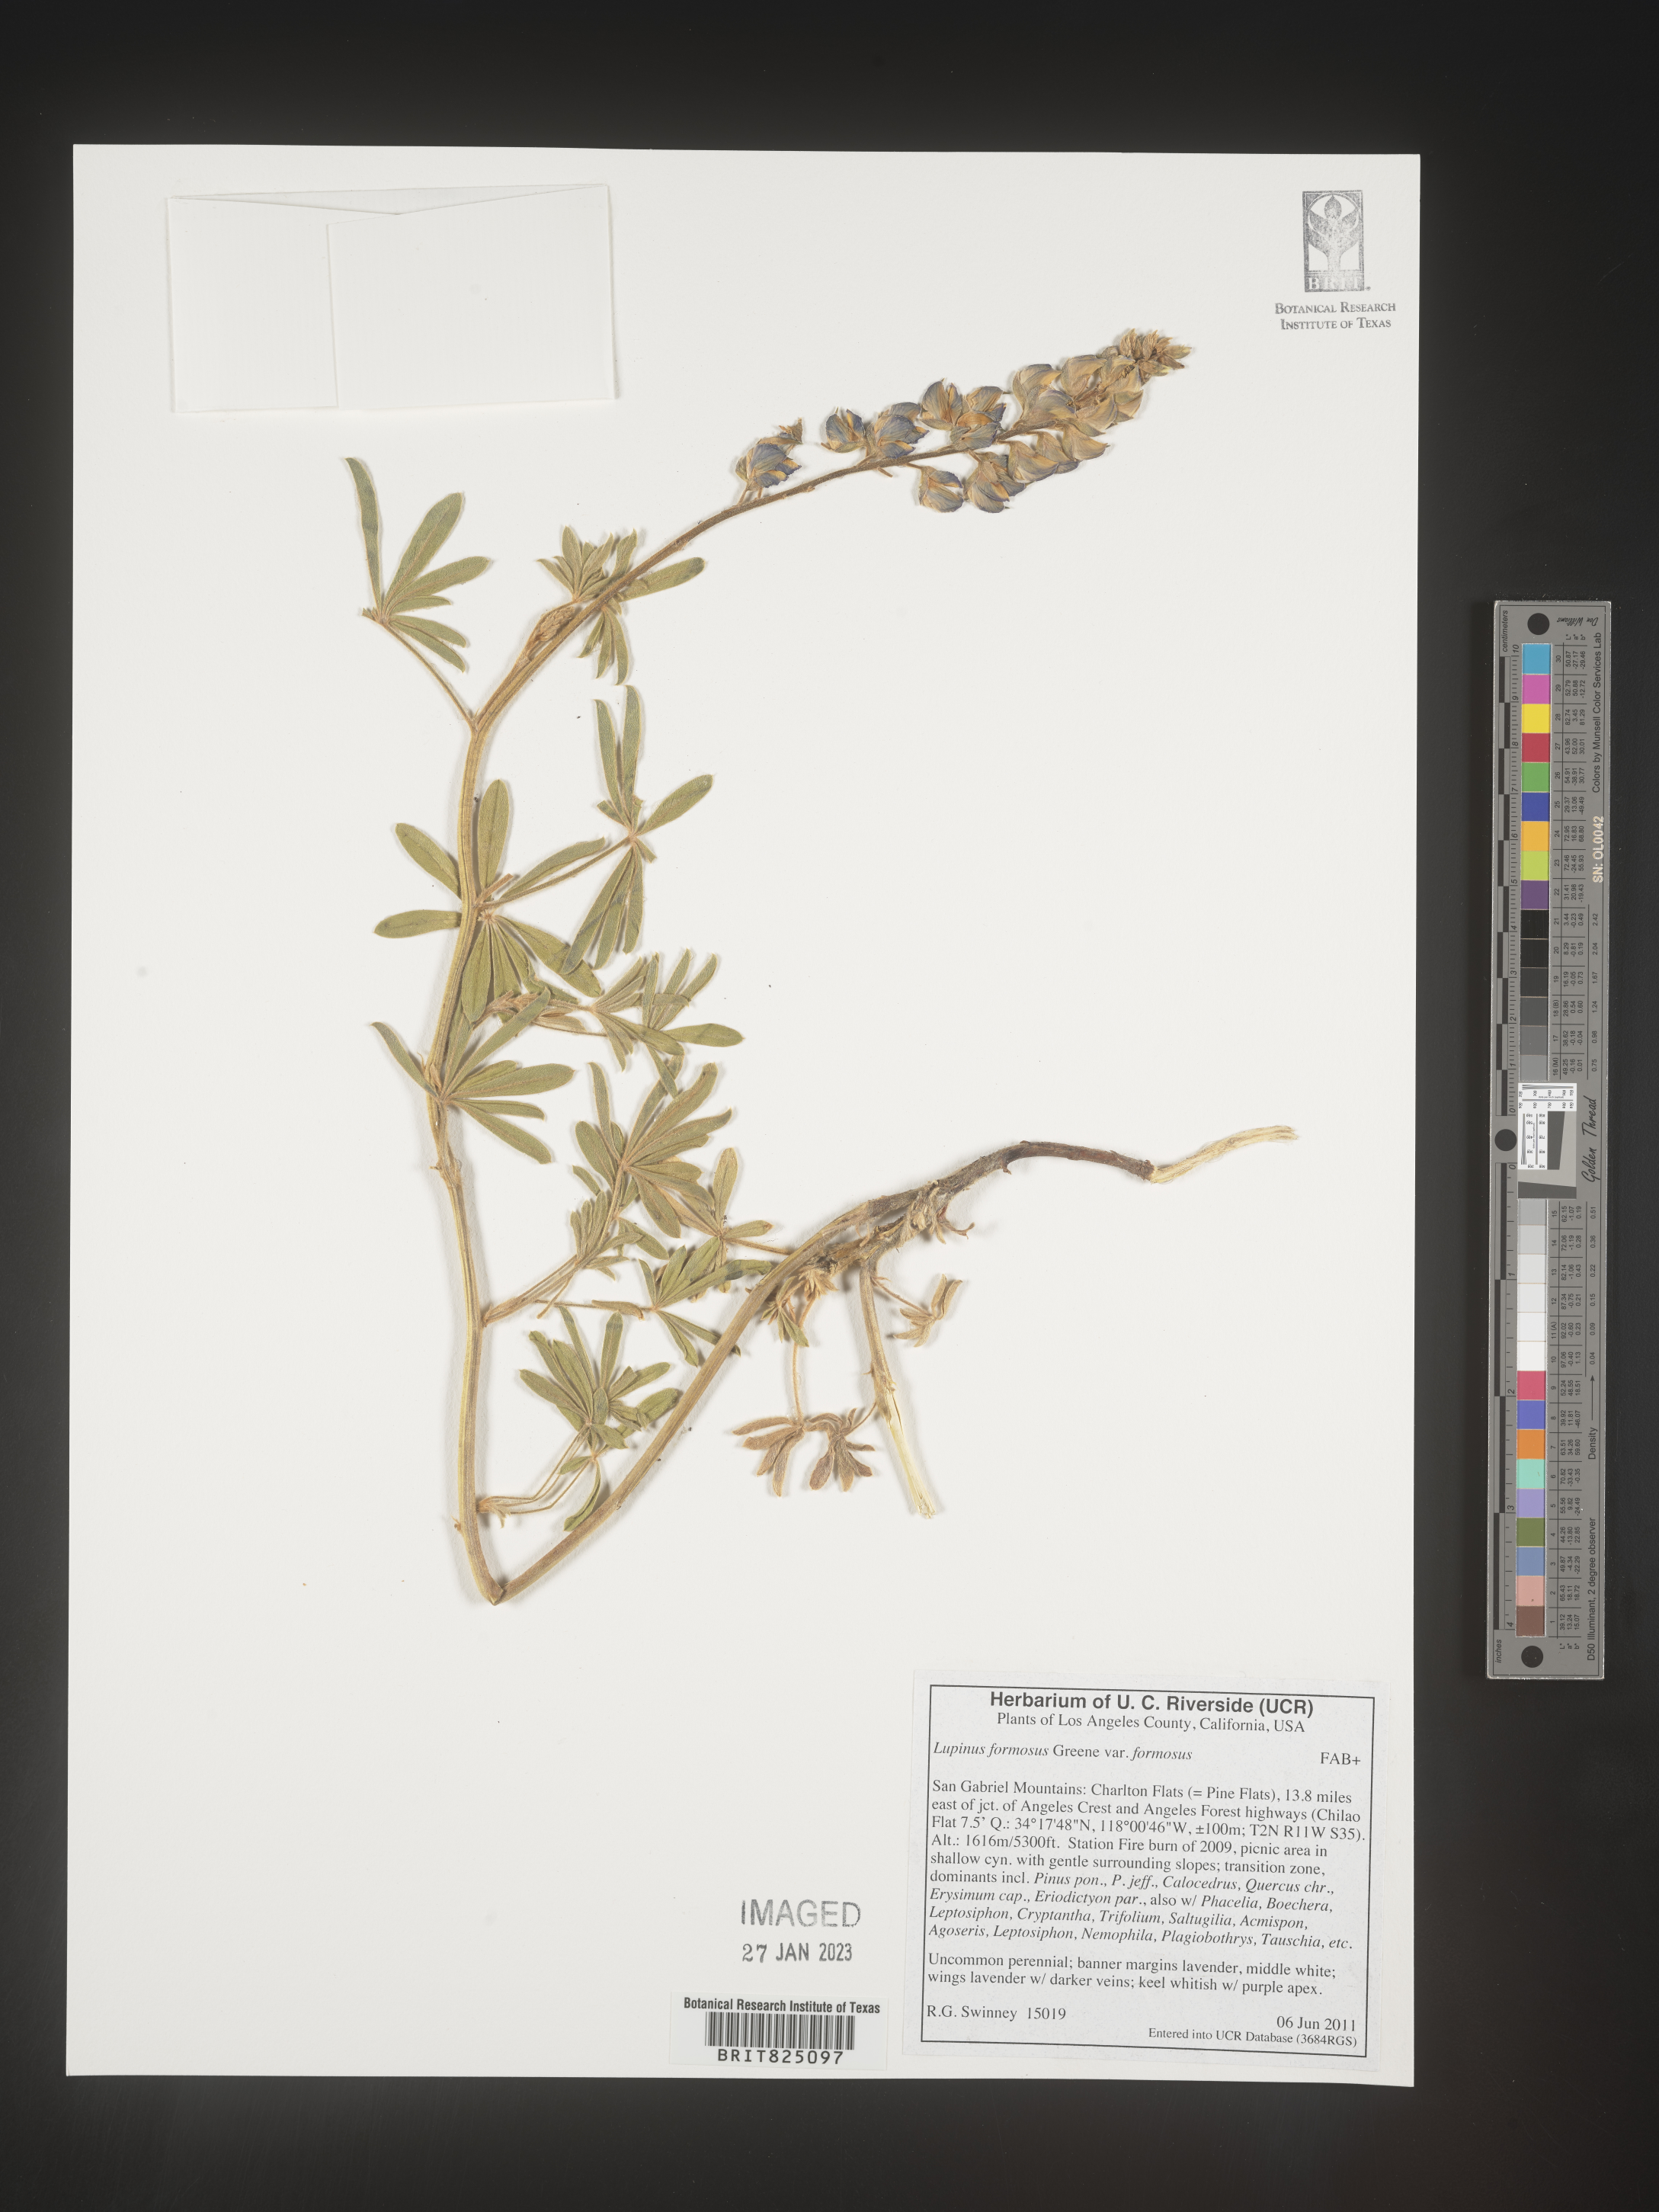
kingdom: Plantae
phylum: Tracheophyta
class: Magnoliopsida
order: Fabales
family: Fabaceae
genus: Lupinus
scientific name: Lupinus
